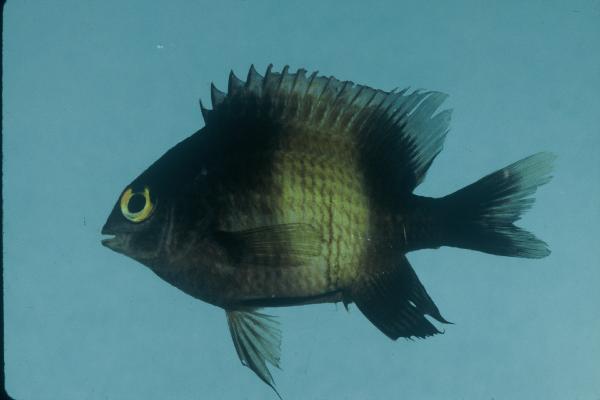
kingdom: Animalia
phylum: Chordata
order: Perciformes
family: Pomacentridae
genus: Stegastes
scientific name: Stegastes nigricans
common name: Dusky gregory
